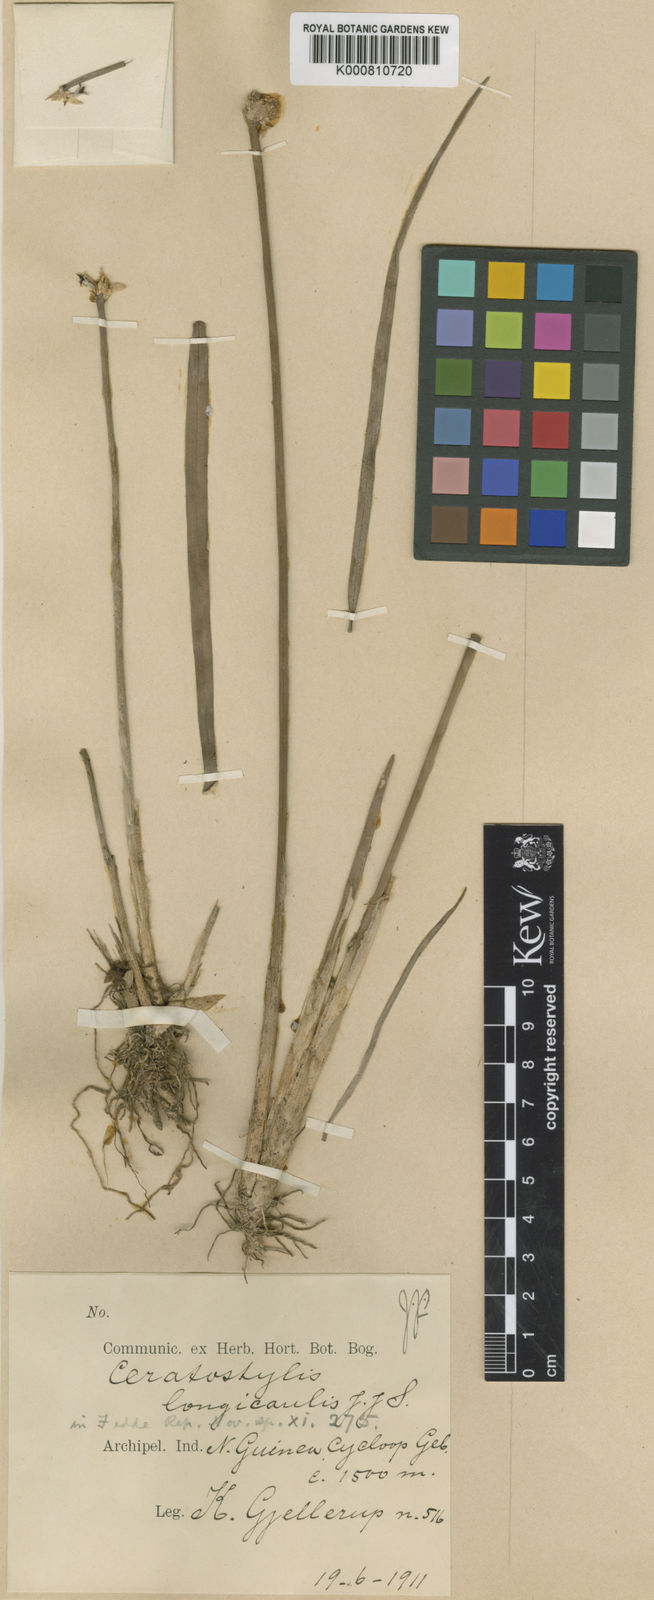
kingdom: Plantae
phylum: Tracheophyta
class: Liliopsida
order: Asparagales
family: Orchidaceae
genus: Ceratostylis
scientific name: Ceratostylis longicaulis
